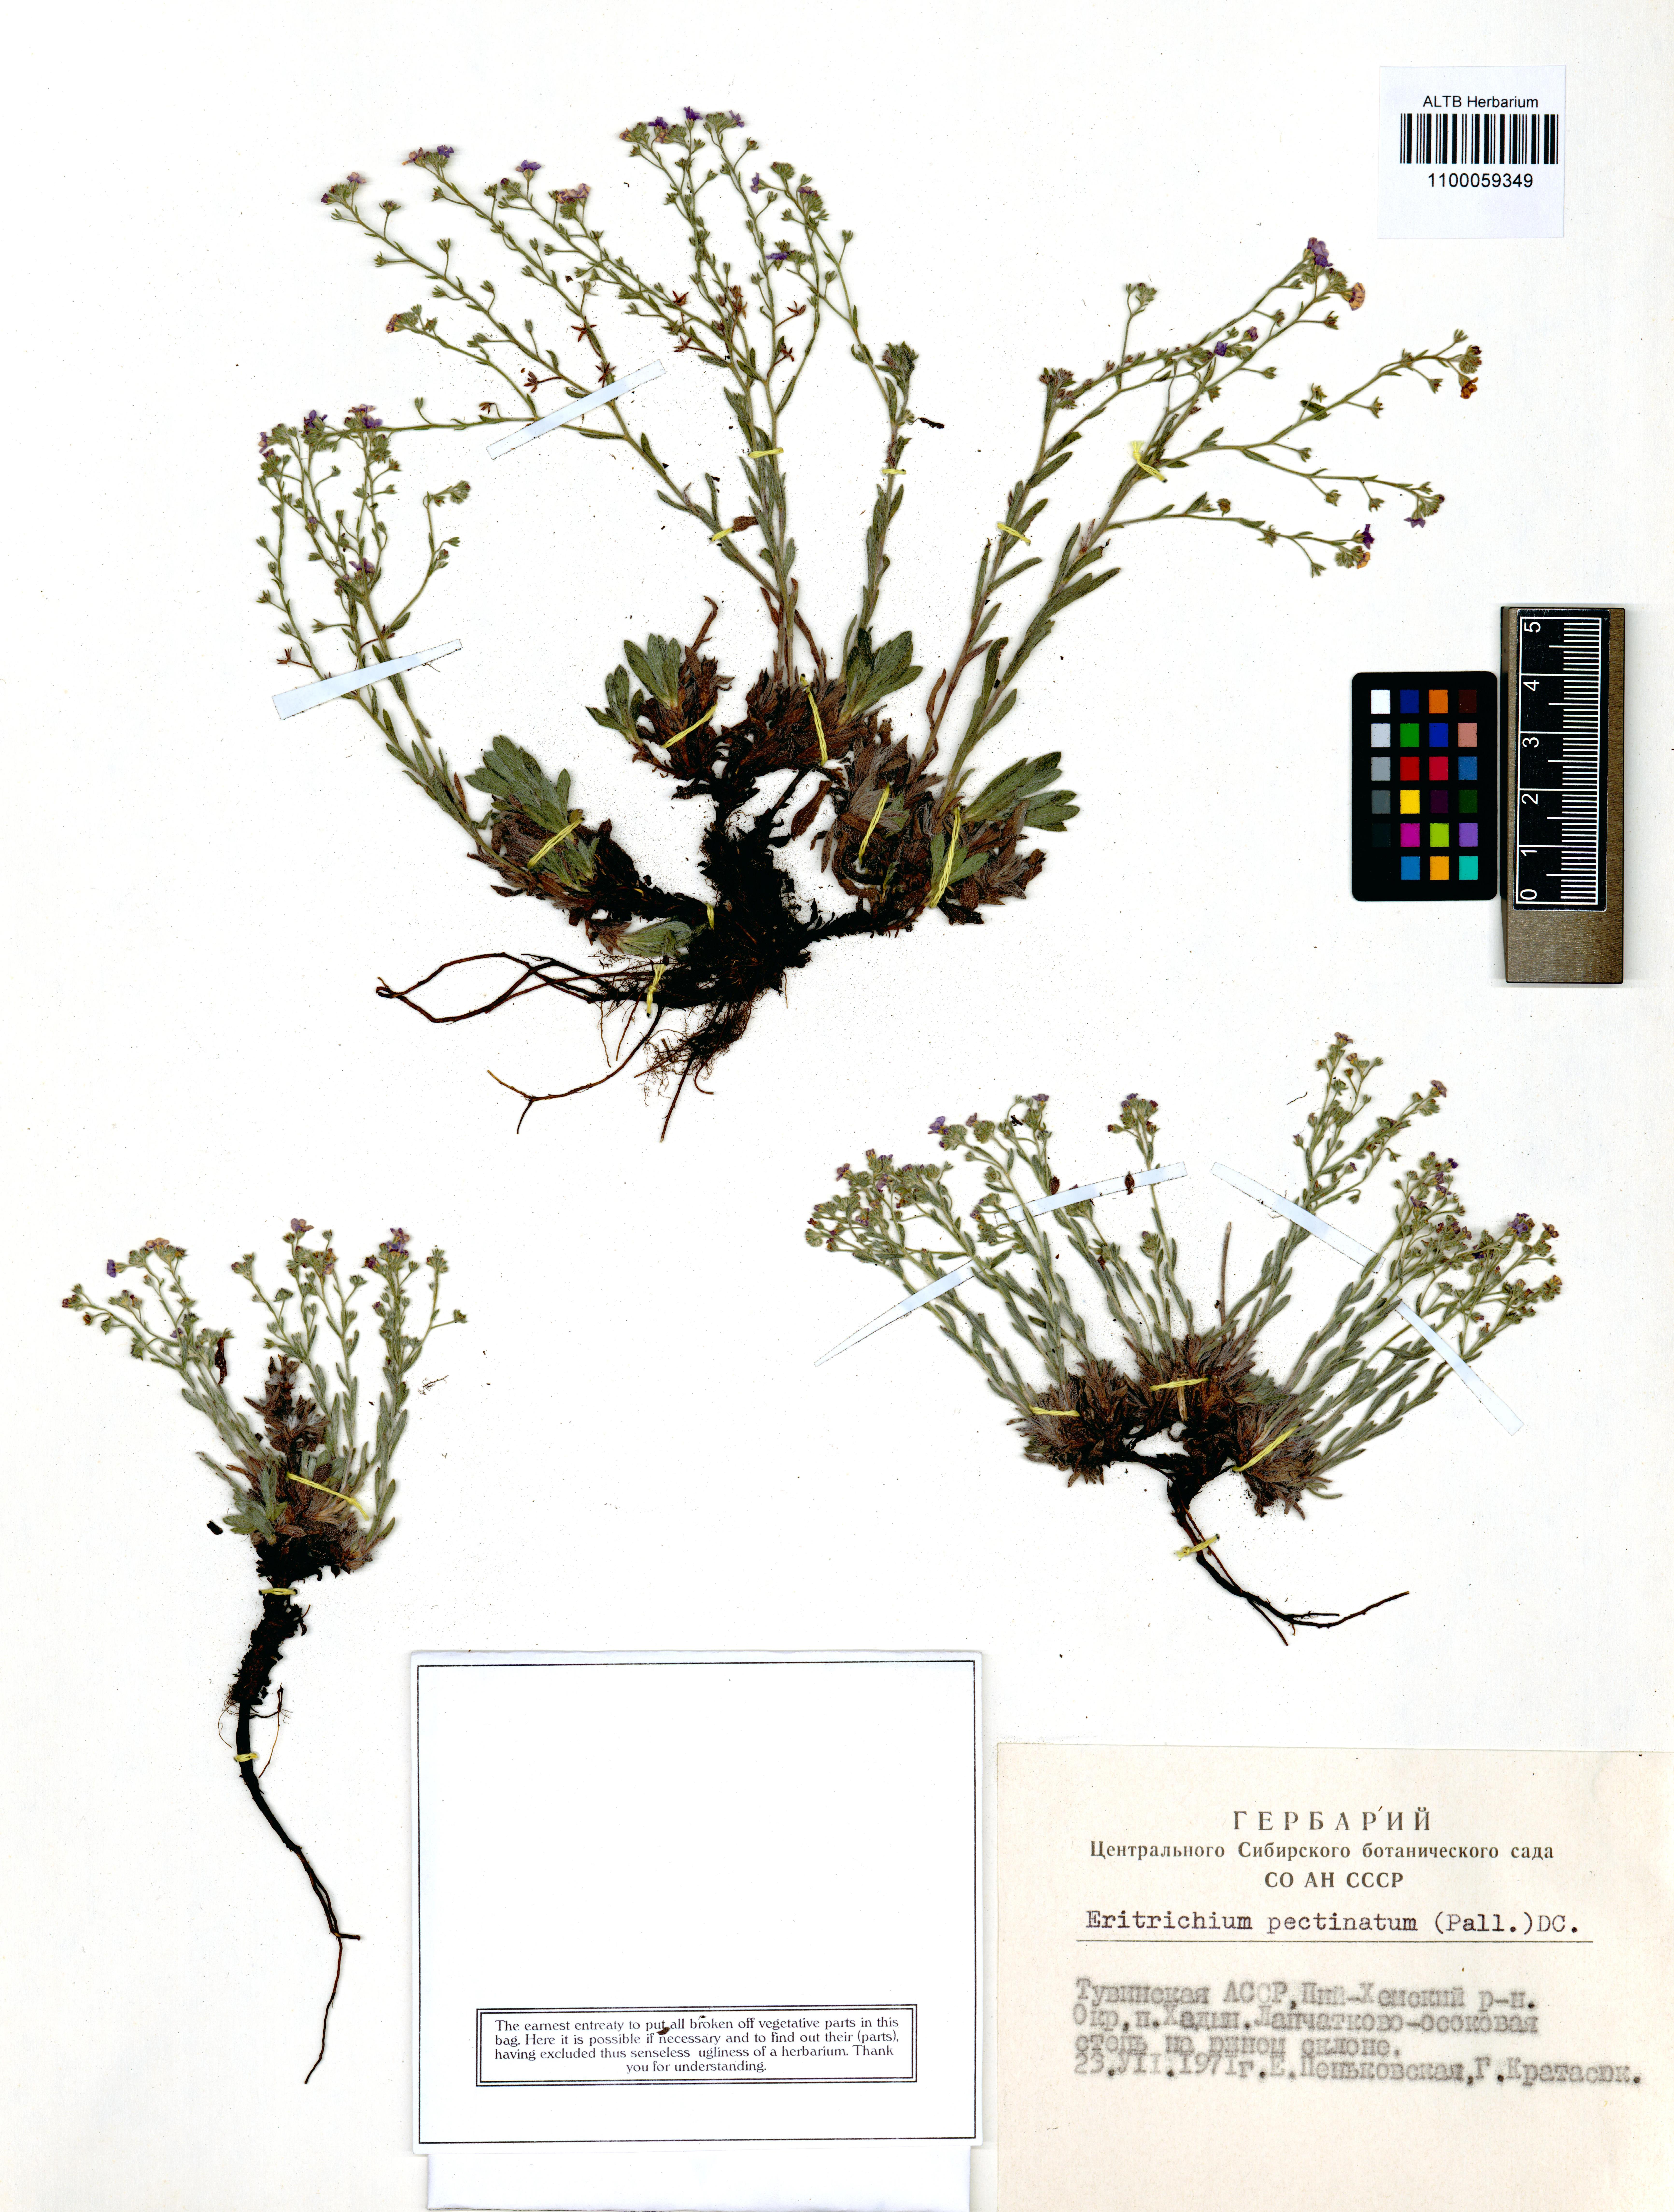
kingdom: Plantae
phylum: Tracheophyta
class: Magnoliopsida
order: Boraginales
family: Boraginaceae
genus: Eritrichium
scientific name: Eritrichium pectinatum
